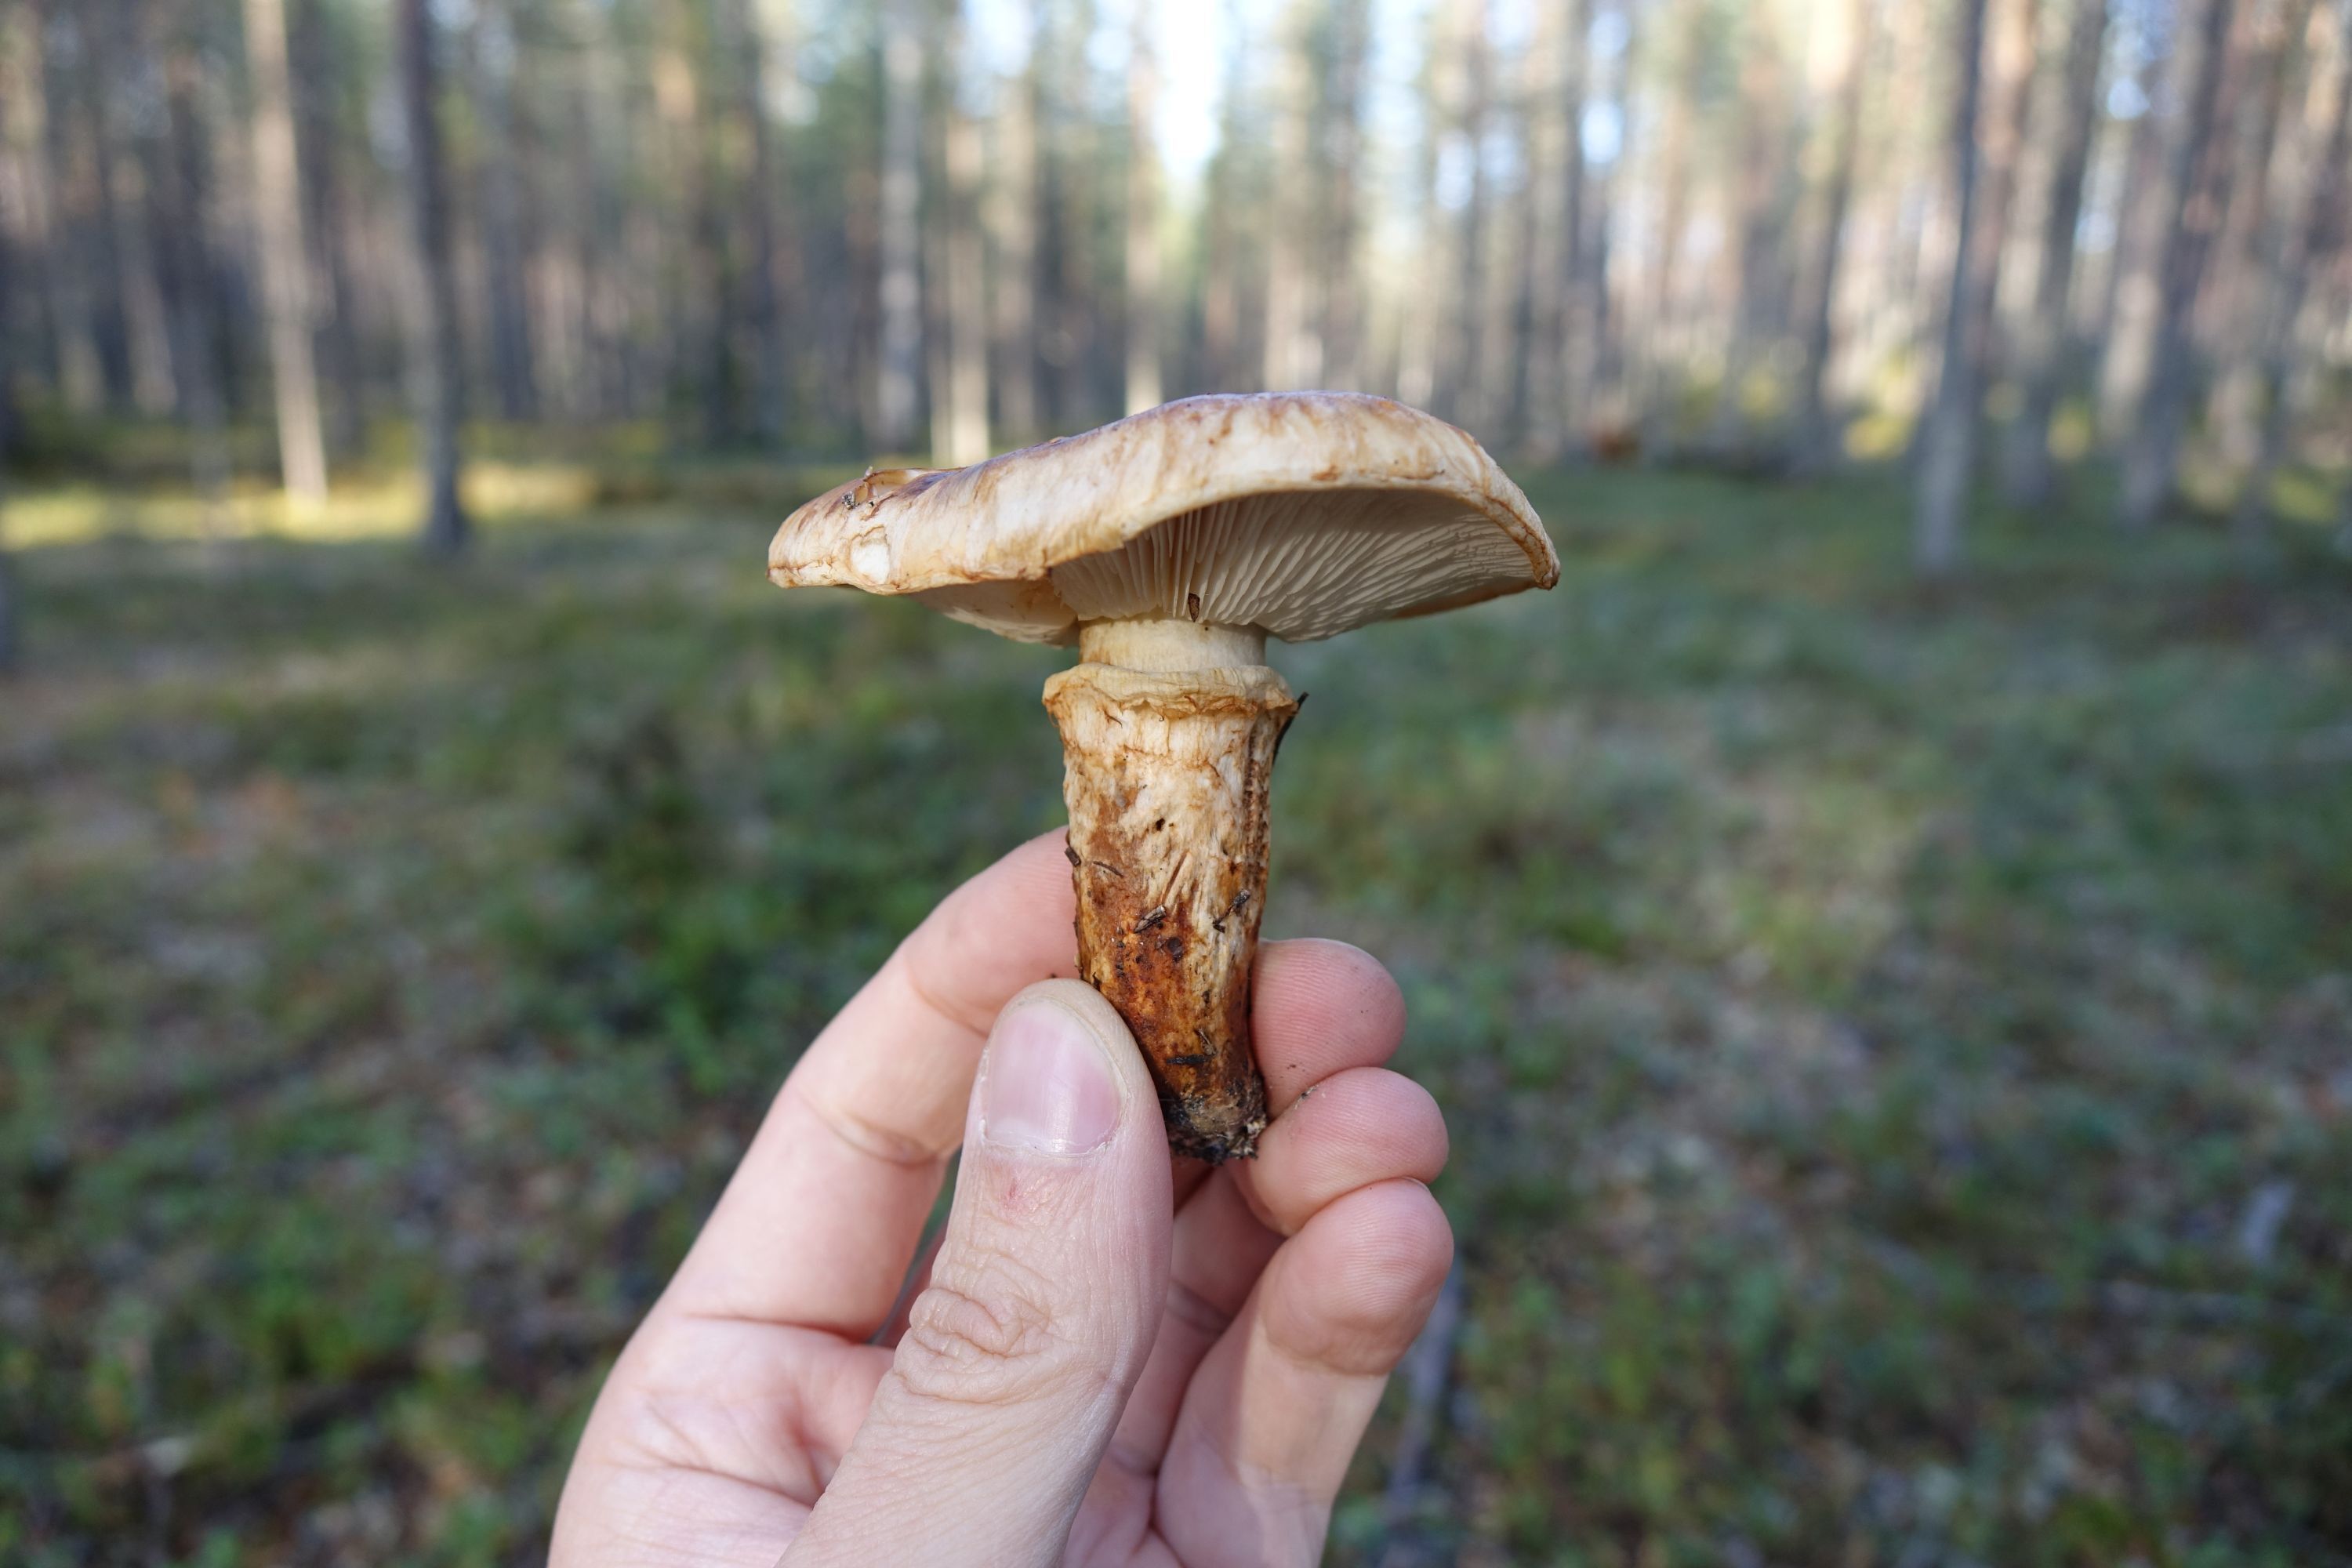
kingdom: Fungi
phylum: Basidiomycota
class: Agaricomycetes
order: Agaricales
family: Tricholomataceae
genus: Tricholoma
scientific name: Tricholoma focale
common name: Booted knight
